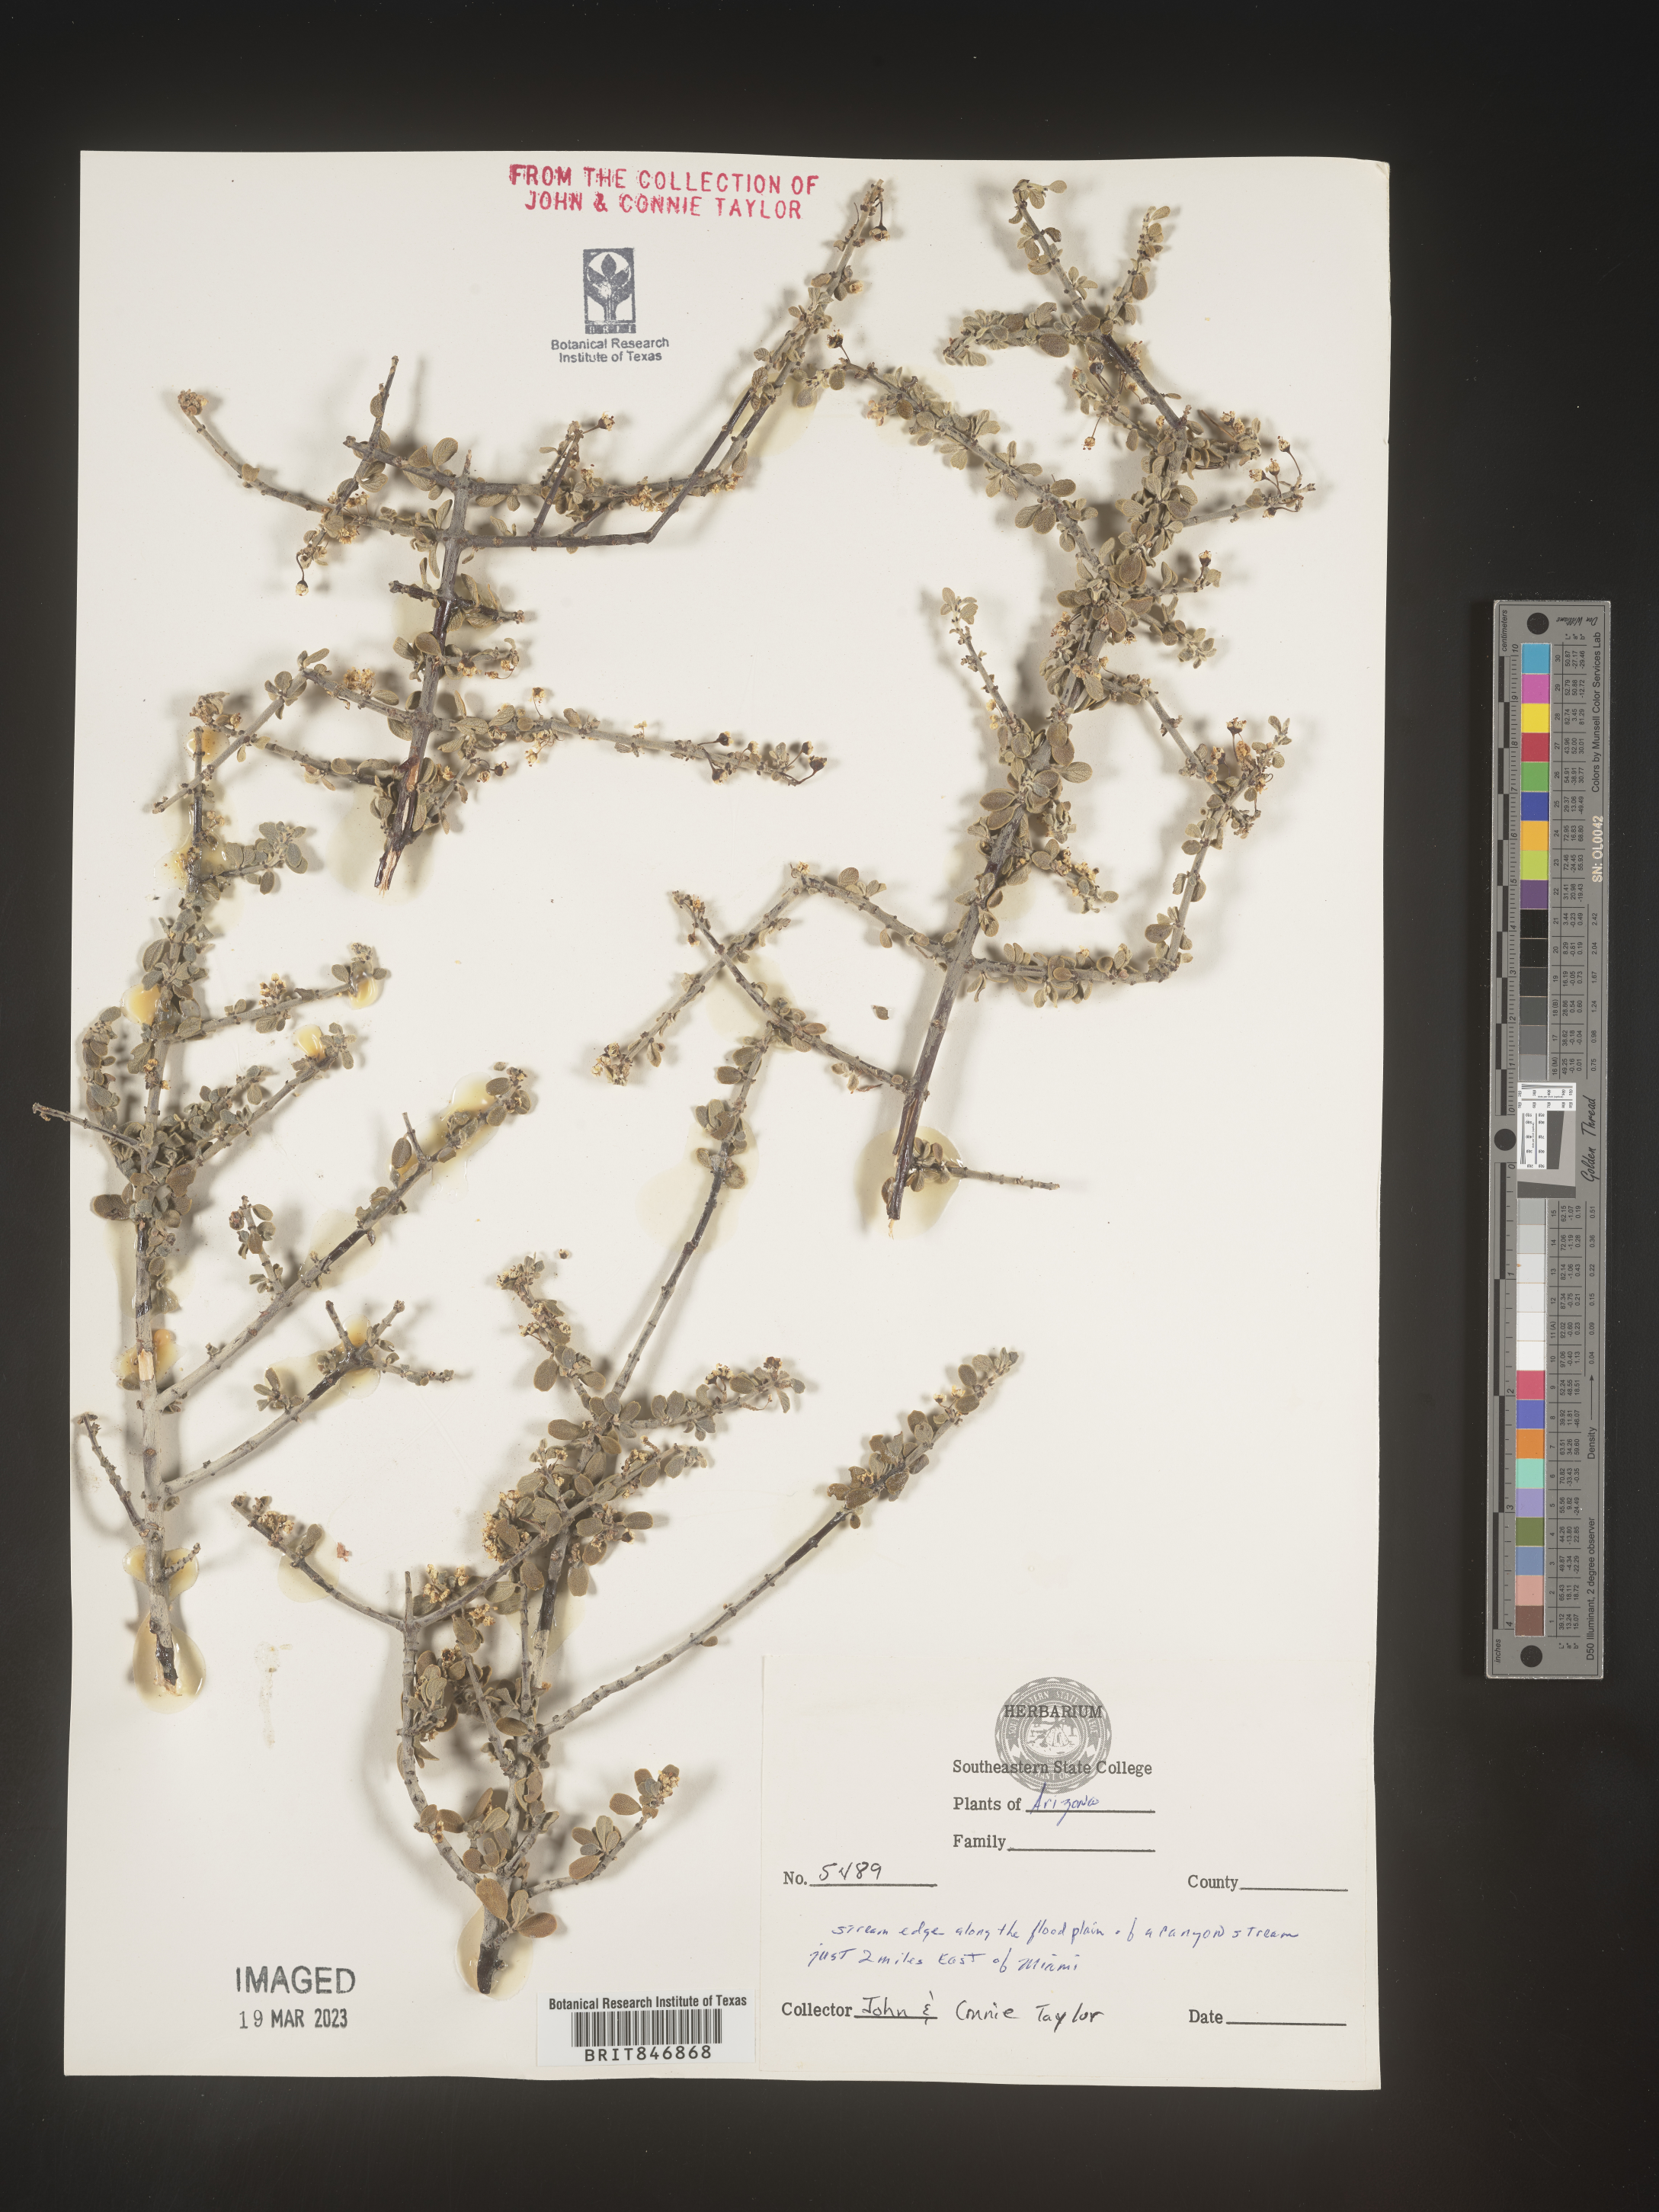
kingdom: Plantae
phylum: Tracheophyta
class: Magnoliopsida
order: Rosales
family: Rhamnaceae
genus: Ceanothus
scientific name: Ceanothus
